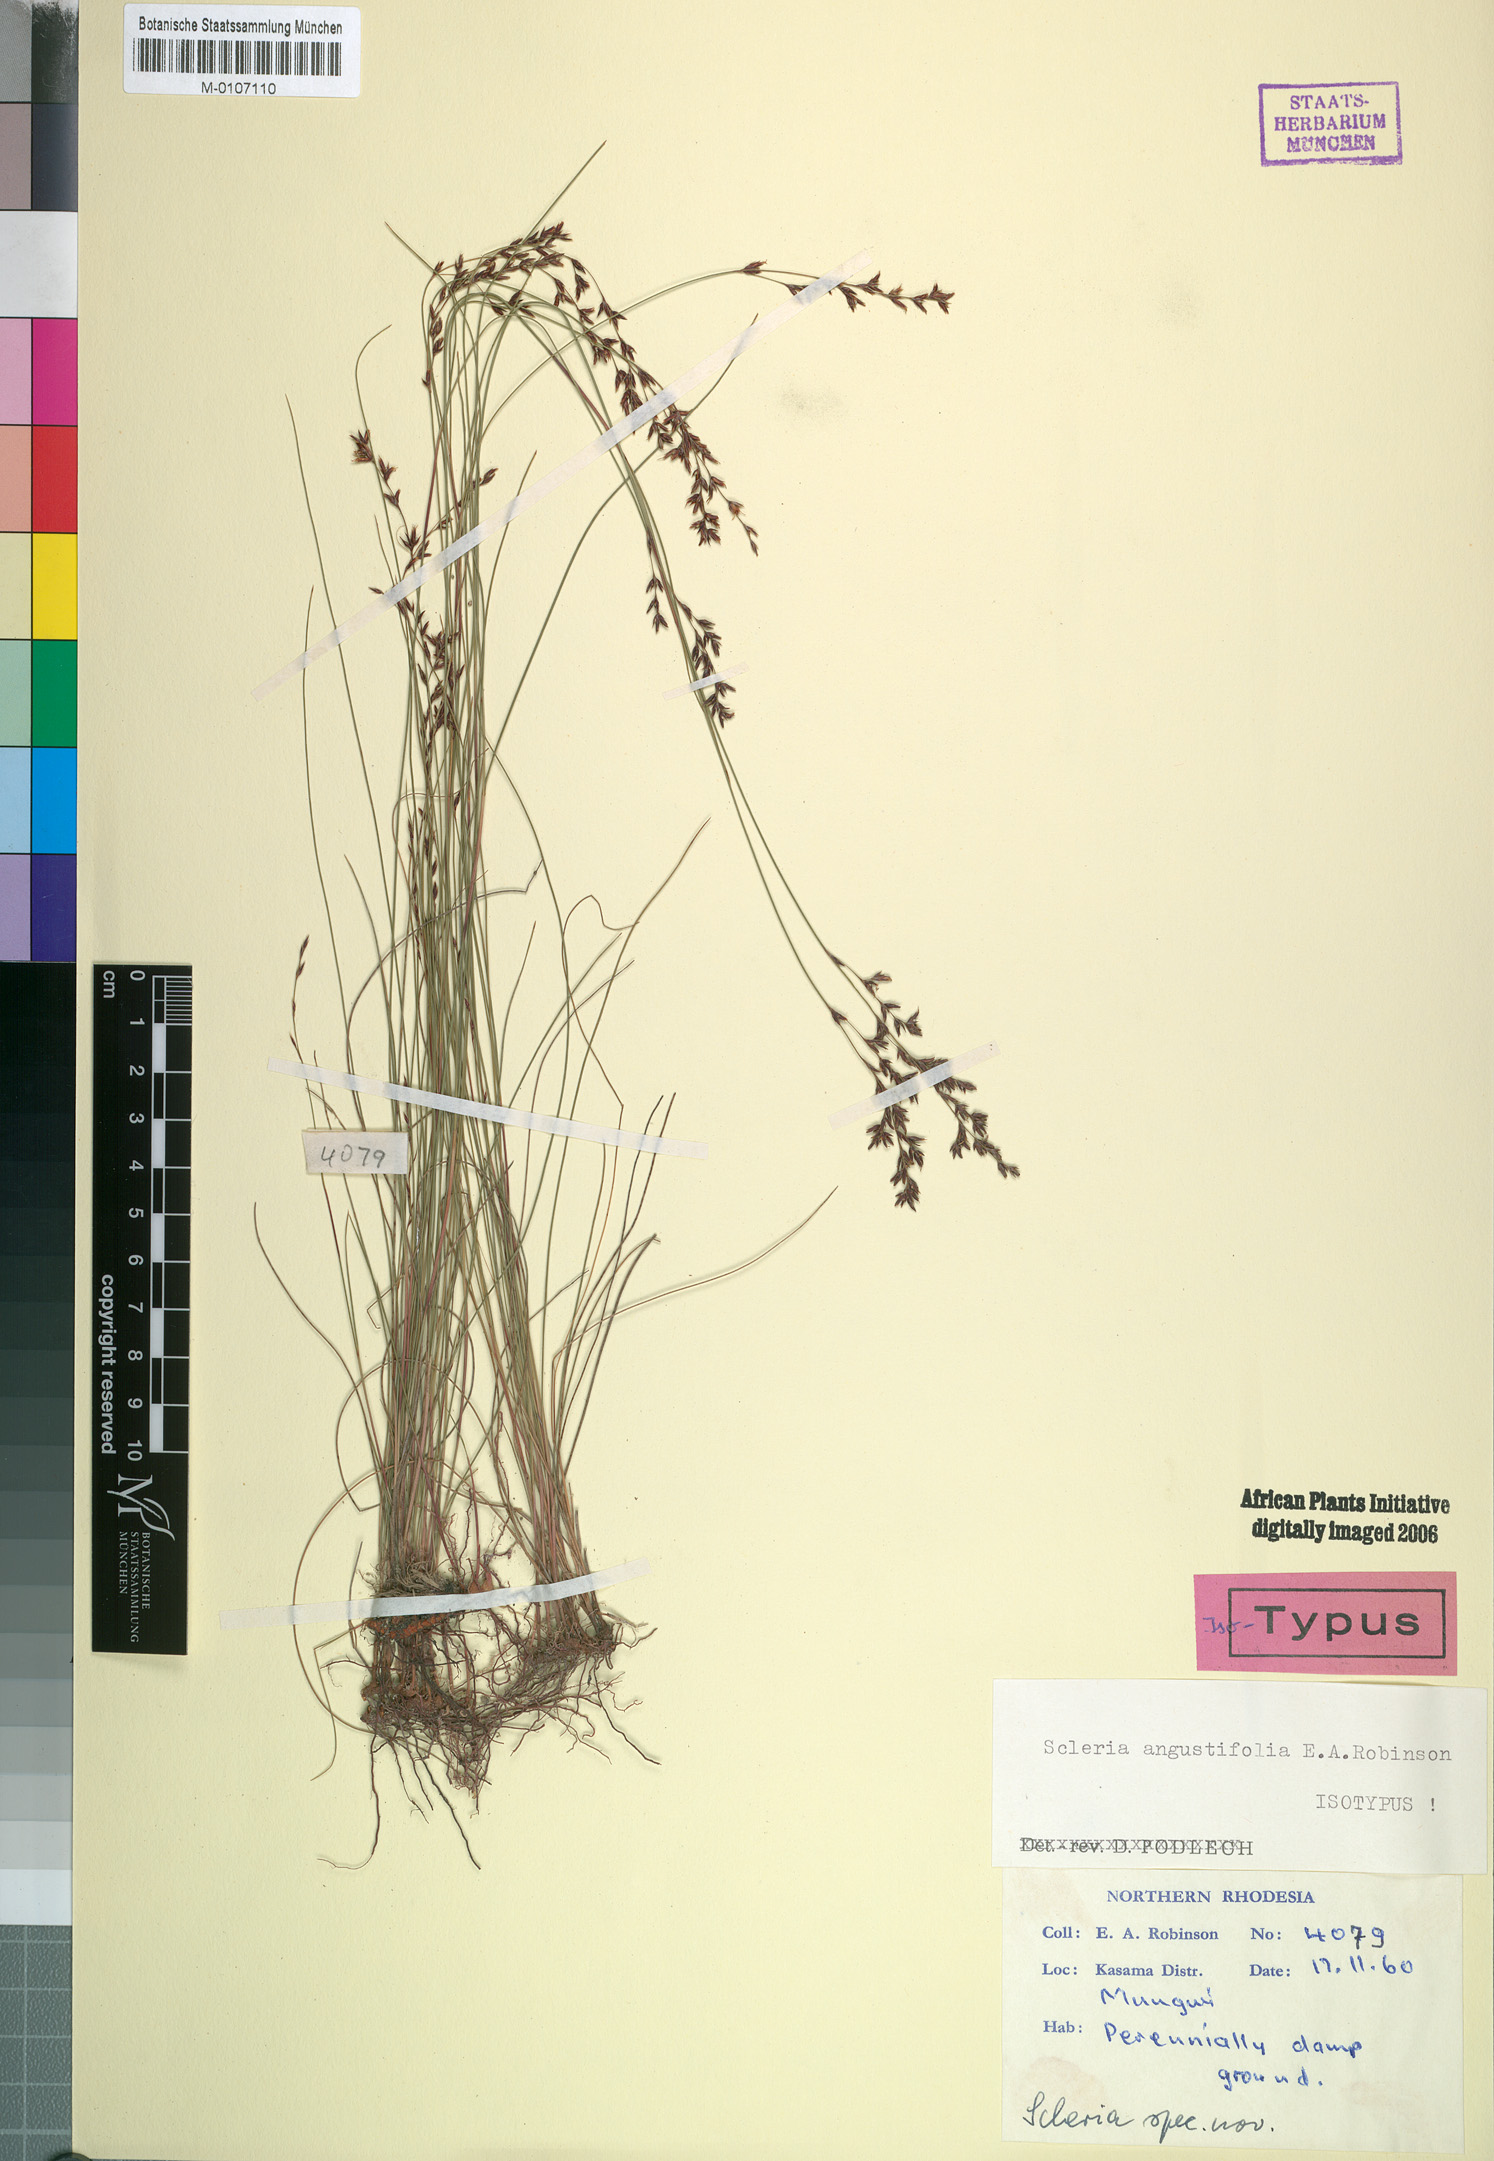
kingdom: Plantae
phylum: Tracheophyta
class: Liliopsida
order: Poales
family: Cyperaceae
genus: Scleria
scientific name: Scleria angustifolia
